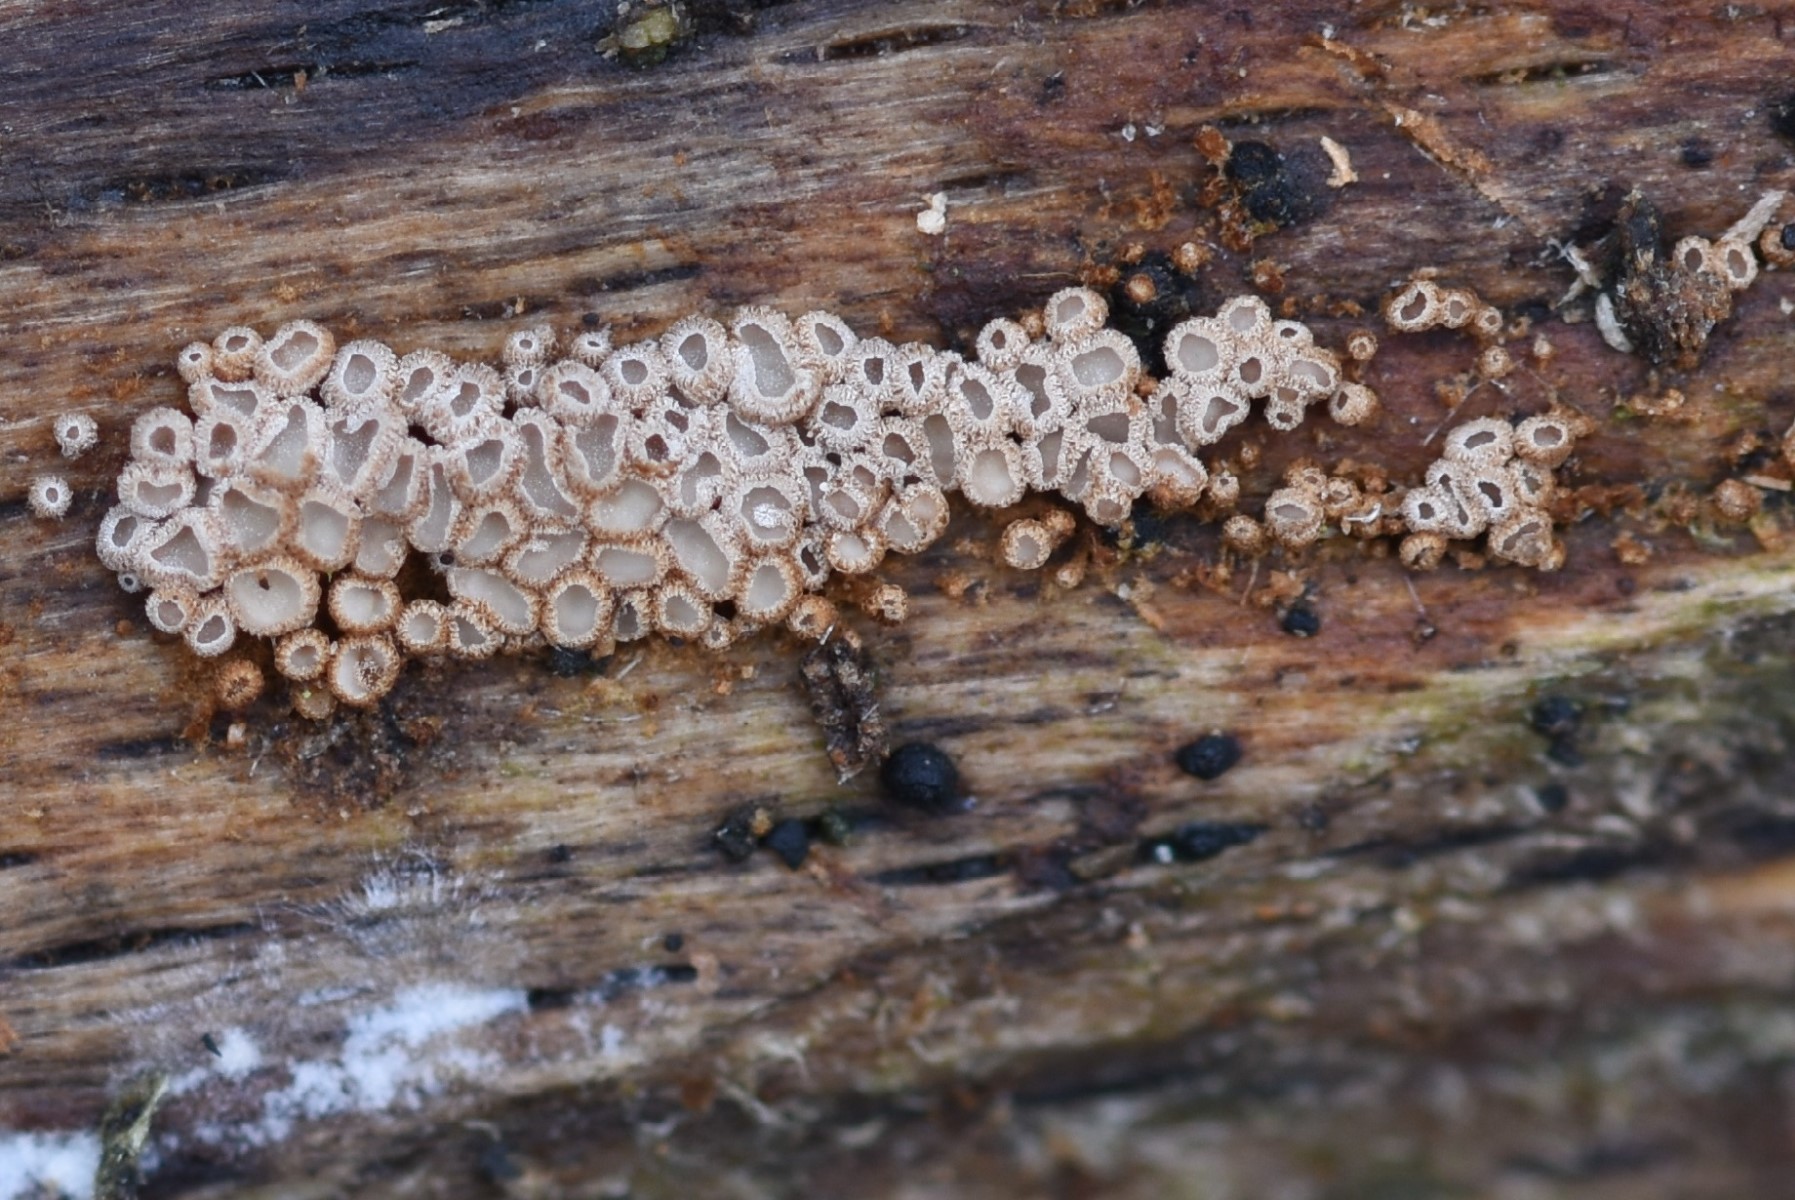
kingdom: Fungi
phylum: Basidiomycota
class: Agaricomycetes
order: Agaricales
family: Niaceae
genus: Merismodes
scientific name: Merismodes anomala
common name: almindelig læderskål
